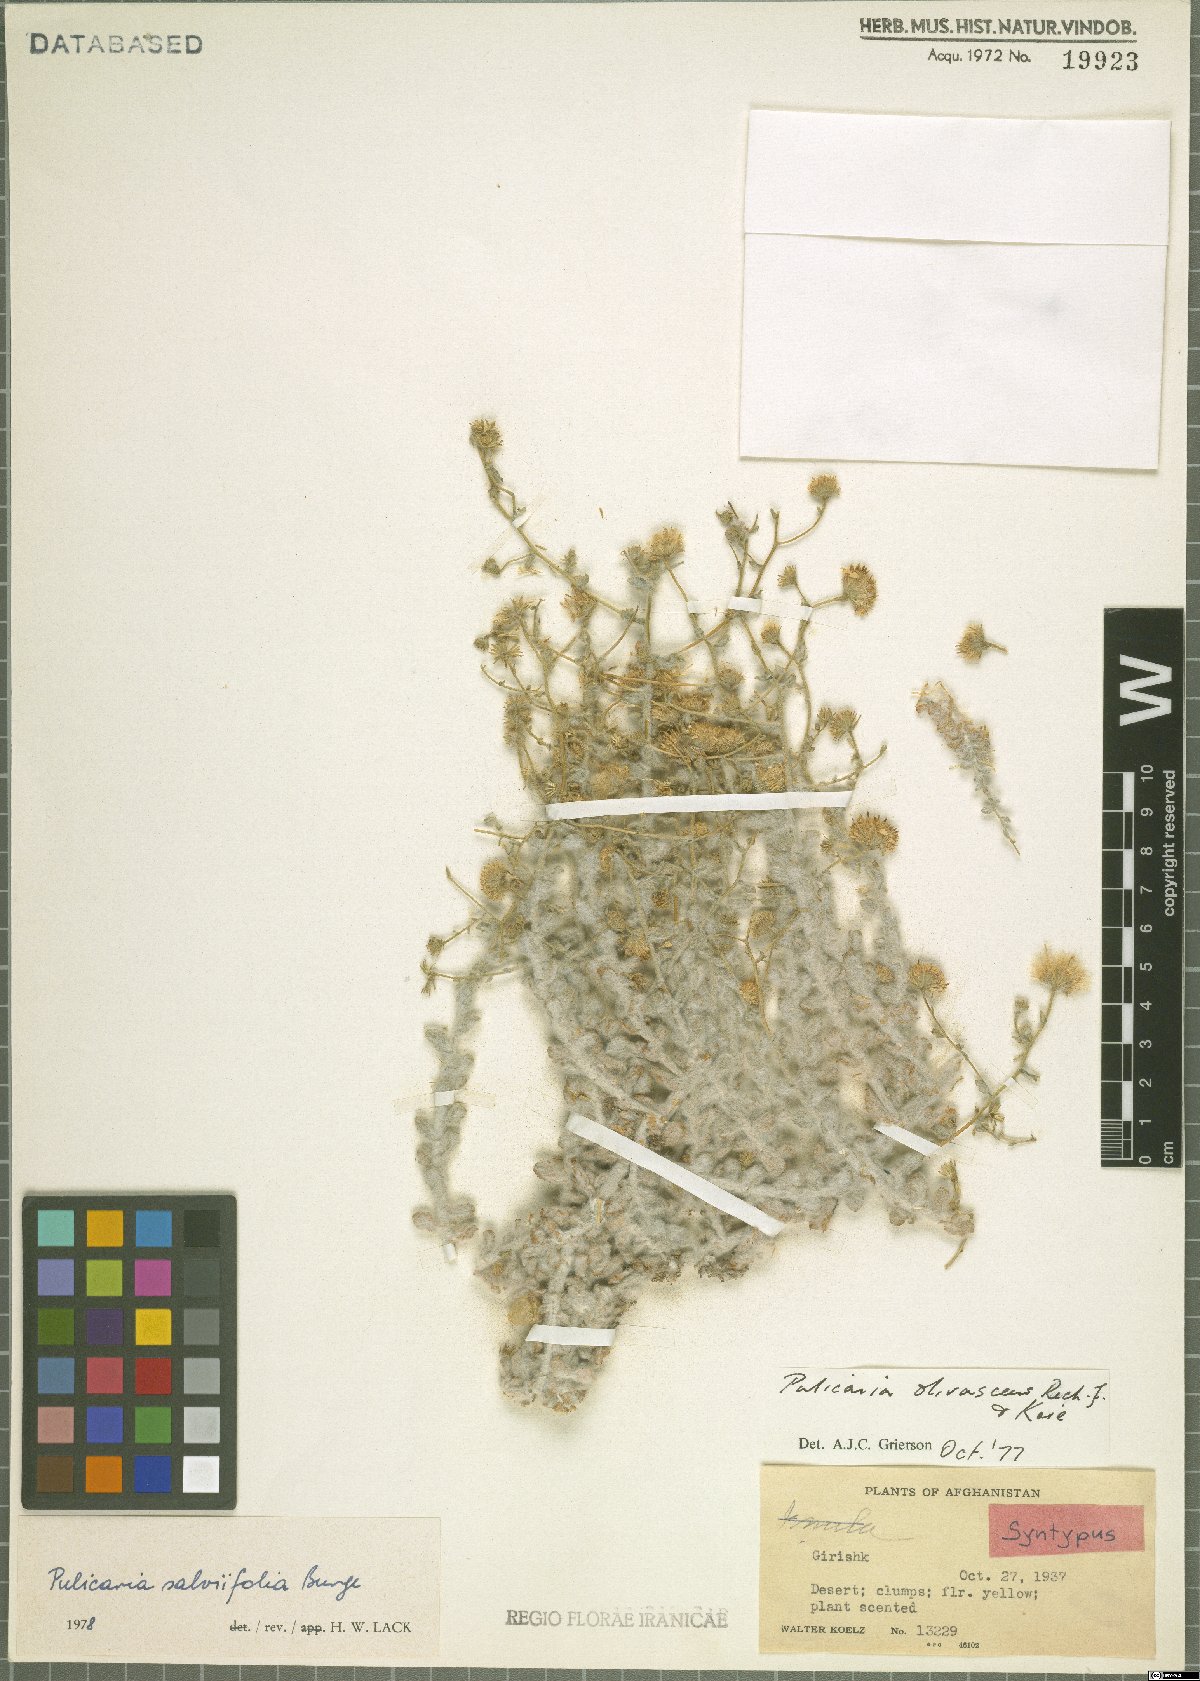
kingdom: Plantae
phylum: Tracheophyta
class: Magnoliopsida
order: Asterales
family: Asteraceae
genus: Pulicaria
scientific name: Pulicaria salviifolia
